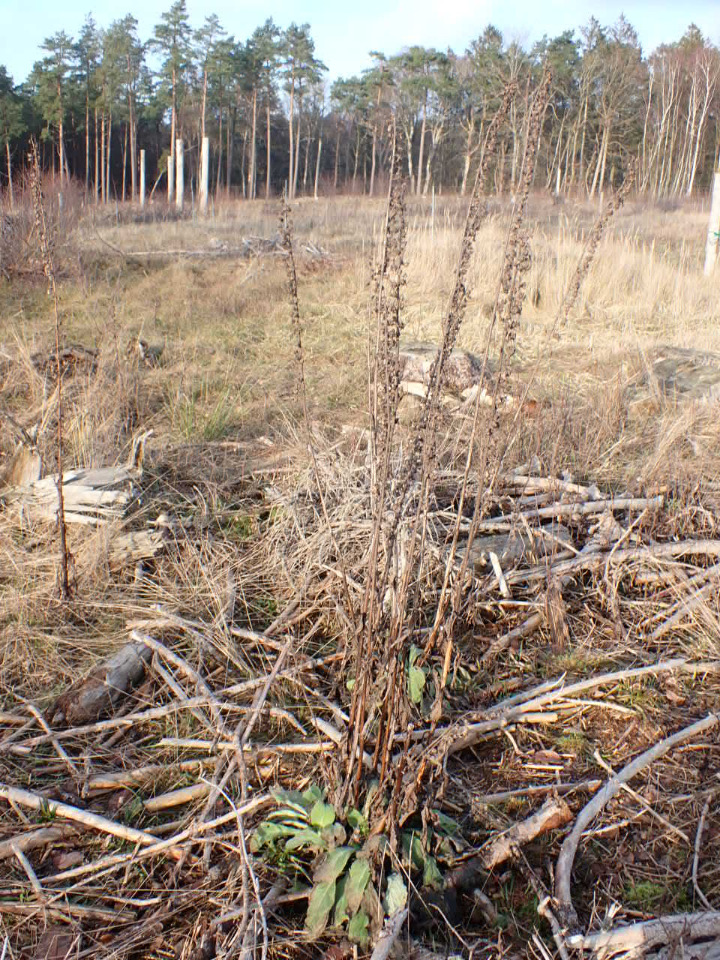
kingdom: Plantae
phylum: Tracheophyta
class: Magnoliopsida
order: Lamiales
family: Plantaginaceae
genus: Digitalis
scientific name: Digitalis purpurea
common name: Almindelig fingerbøl
